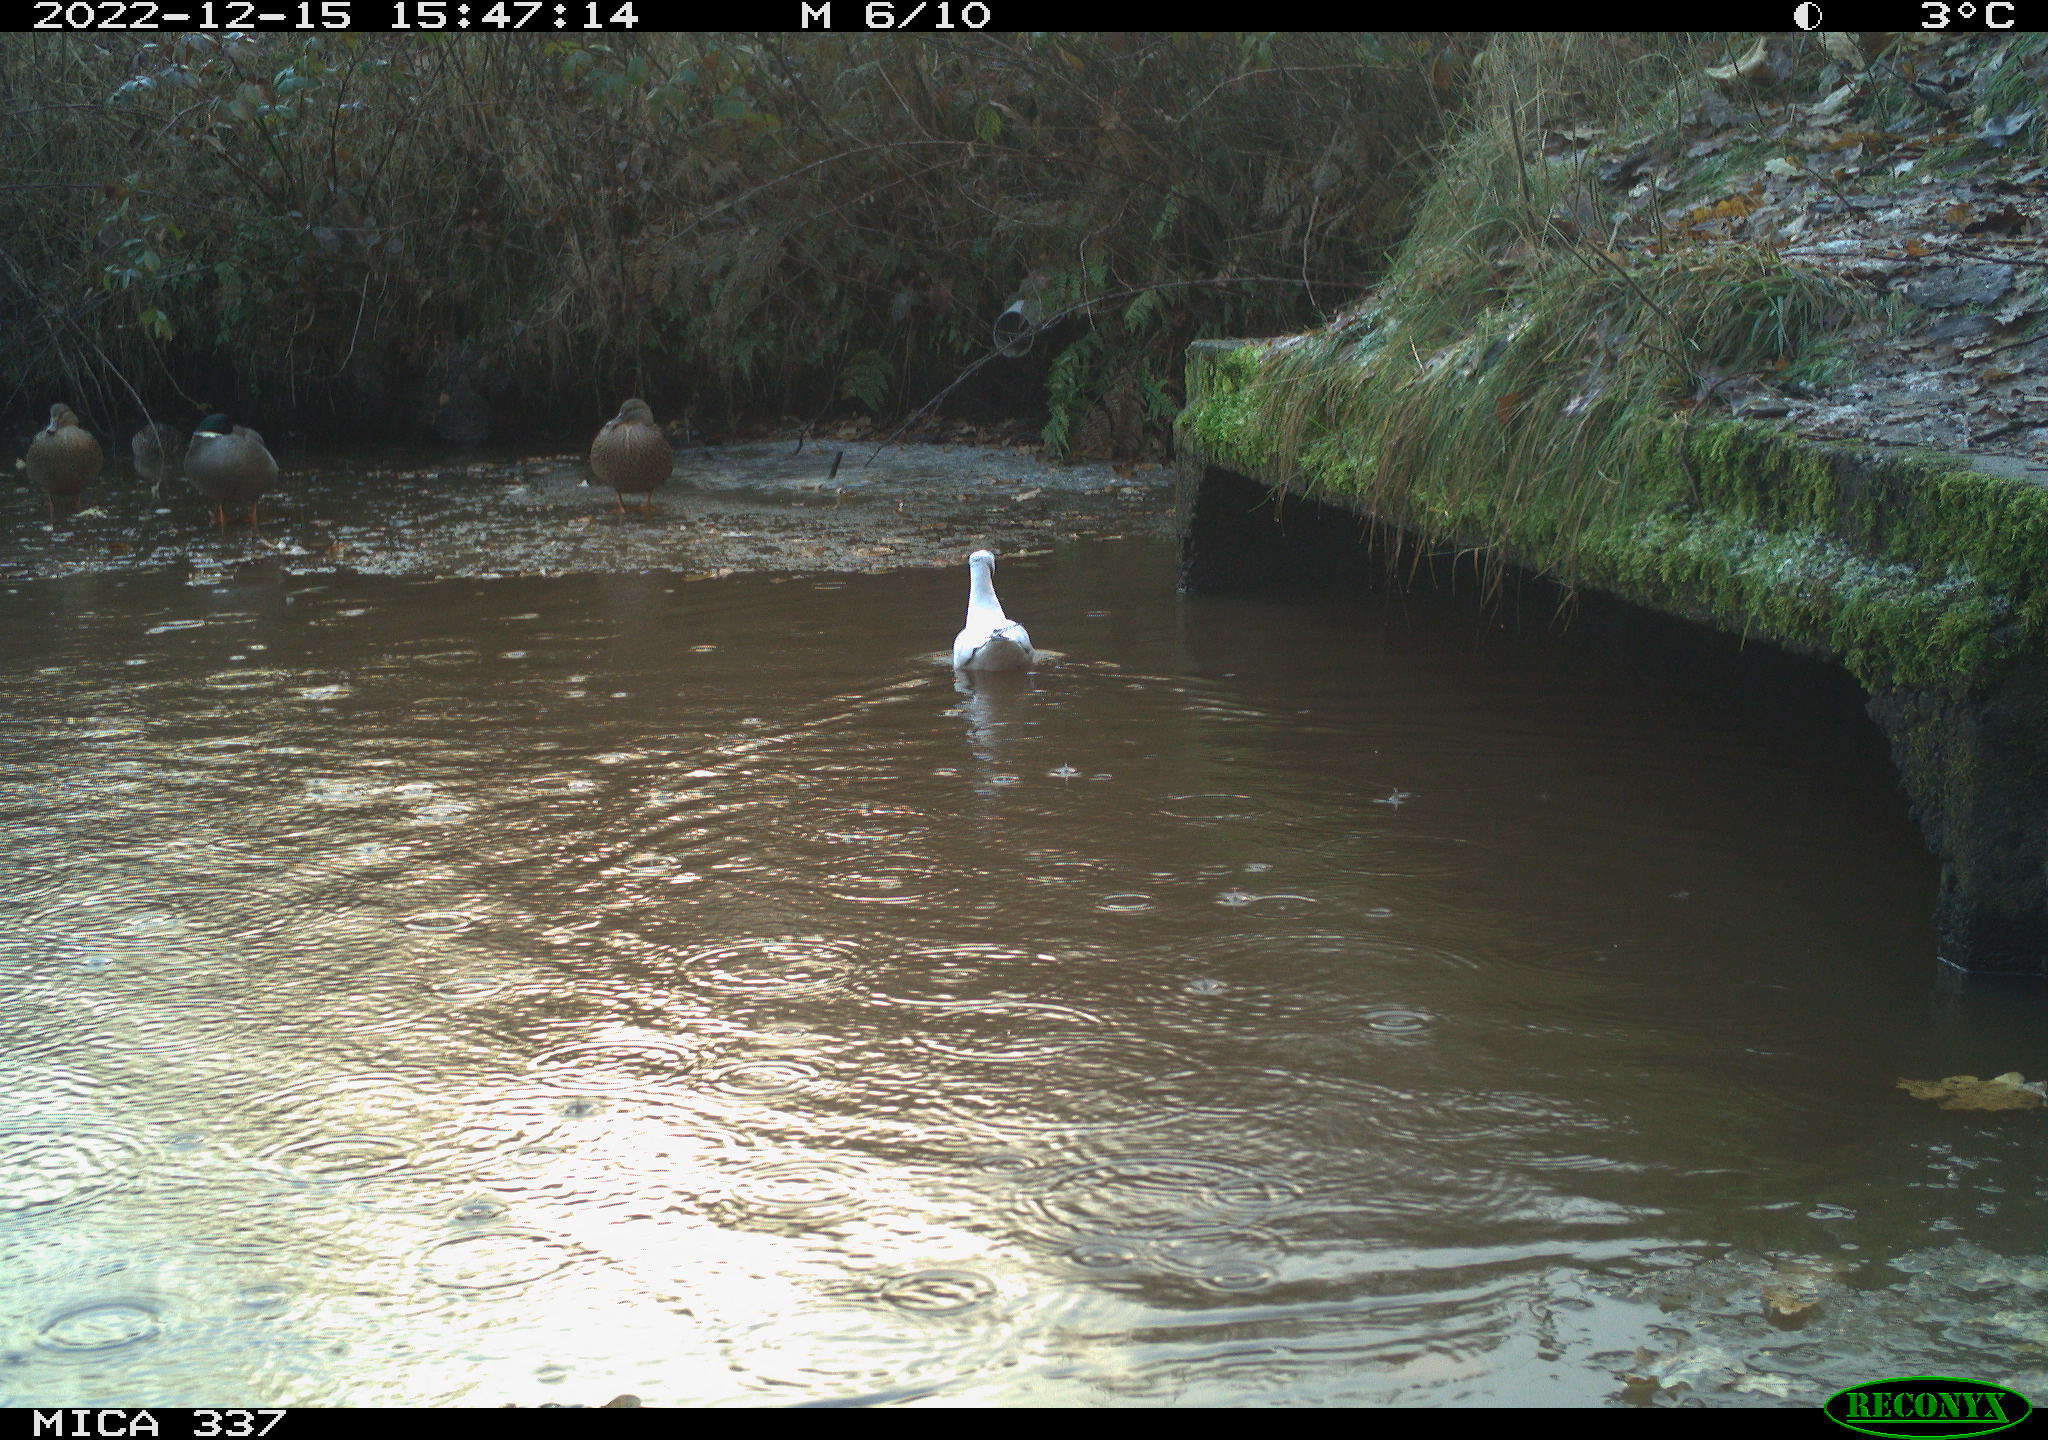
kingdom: Animalia
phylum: Chordata
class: Aves
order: Charadriiformes
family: Laridae
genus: Chroicocephalus
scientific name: Chroicocephalus ridibundus
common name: Black-headed gull
